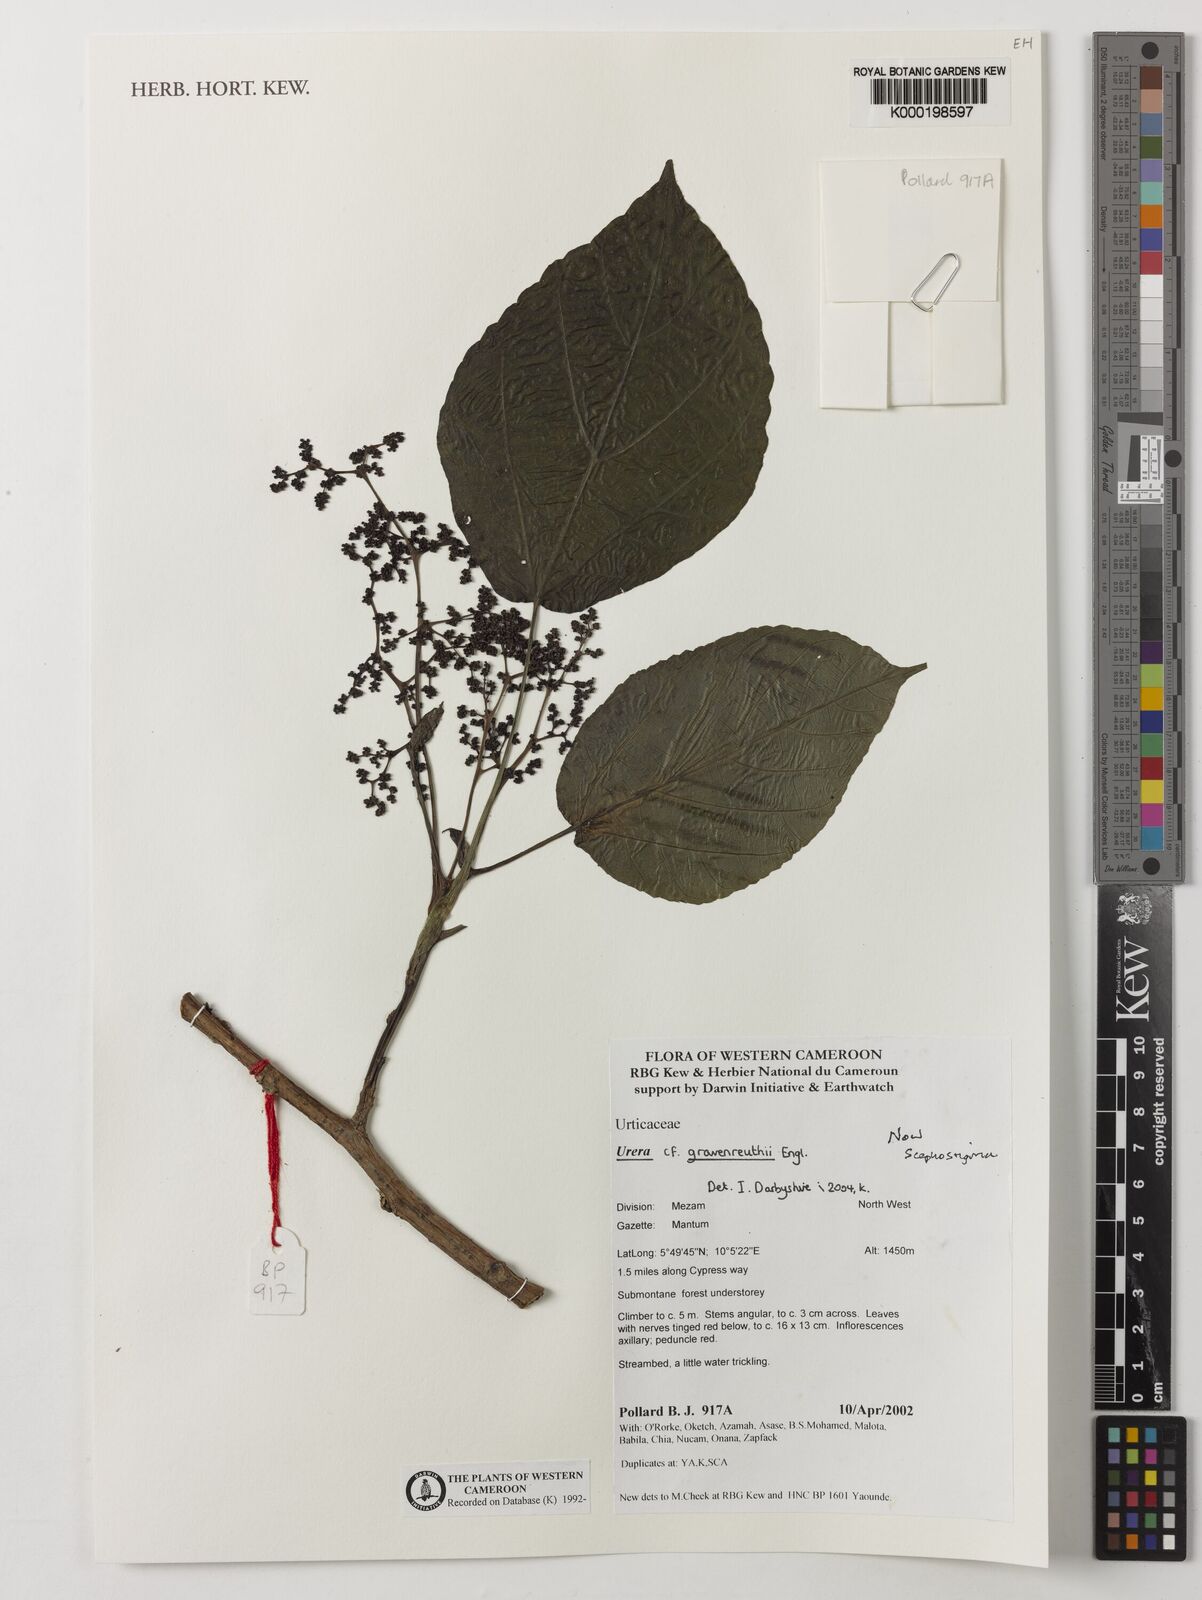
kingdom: Plantae
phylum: Tracheophyta
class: Magnoliopsida
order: Rosales
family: Urticaceae
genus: Scepocarpus
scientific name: Scepocarpus
